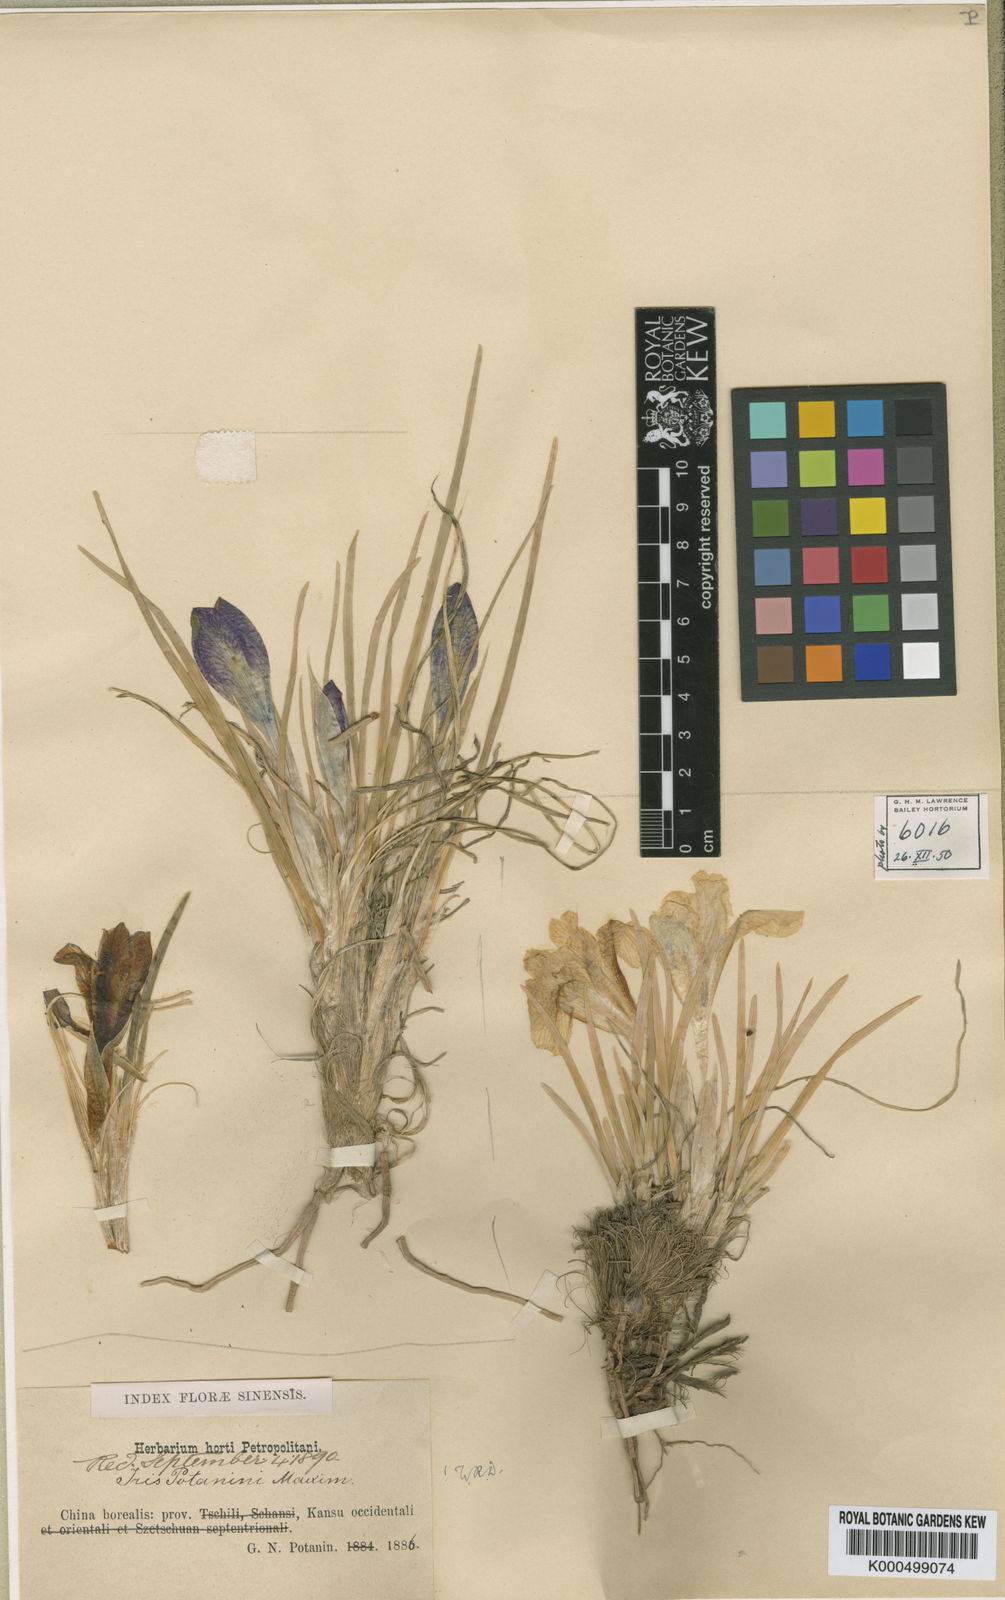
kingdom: Plantae
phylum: Tracheophyta
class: Liliopsida
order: Asparagales
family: Iridaceae
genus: Iris
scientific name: Iris potaninii
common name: Curl-sheath iris
